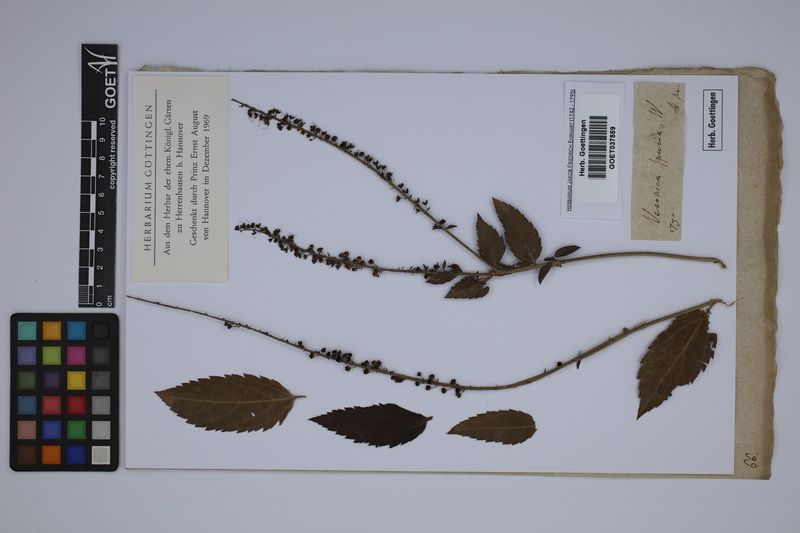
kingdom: Plantae
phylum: Tracheophyta
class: Magnoliopsida
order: Lamiales
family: Plantaginaceae
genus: Veronica
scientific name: Veronica spuria
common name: Bastard speedwell
